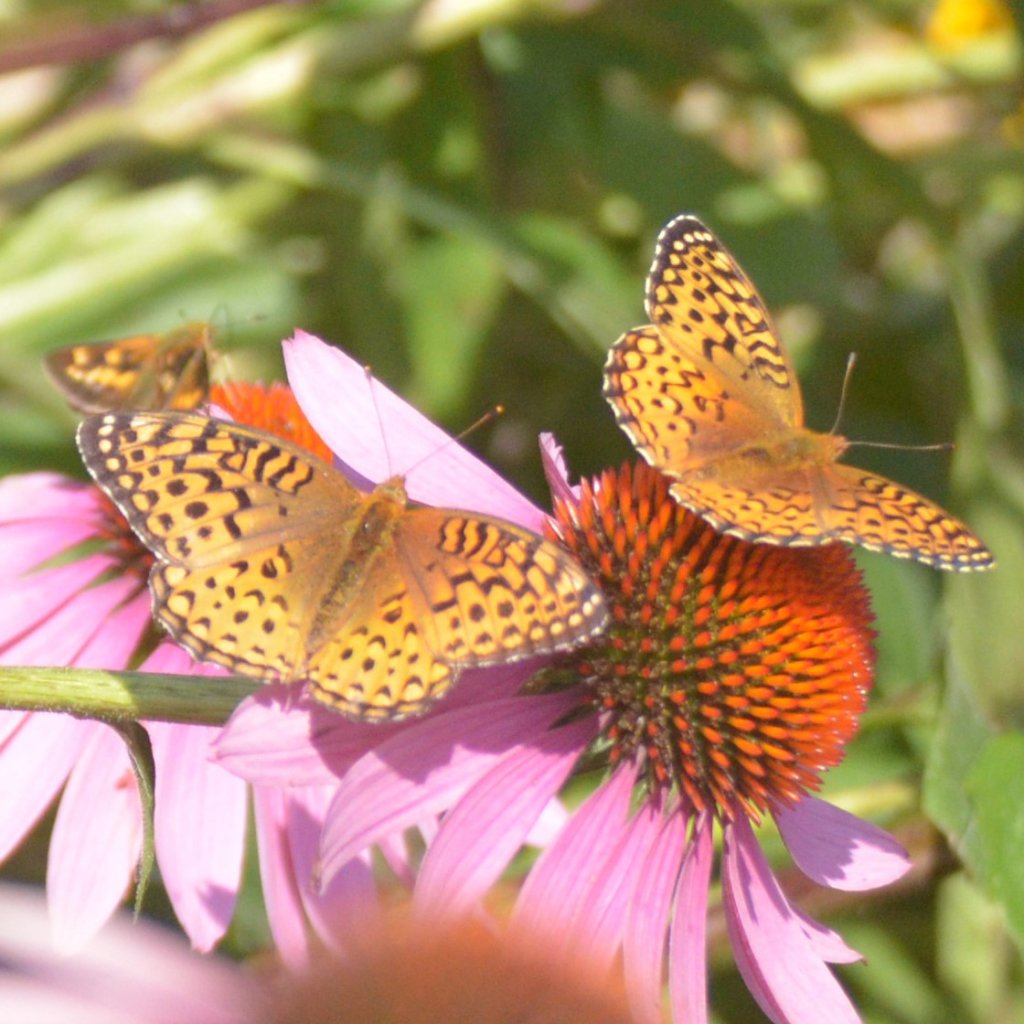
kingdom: Animalia
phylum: Arthropoda
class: Insecta
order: Lepidoptera
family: Nymphalidae
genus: Speyeria
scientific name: Speyeria aphrodite
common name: Aphrodite Fritillary
